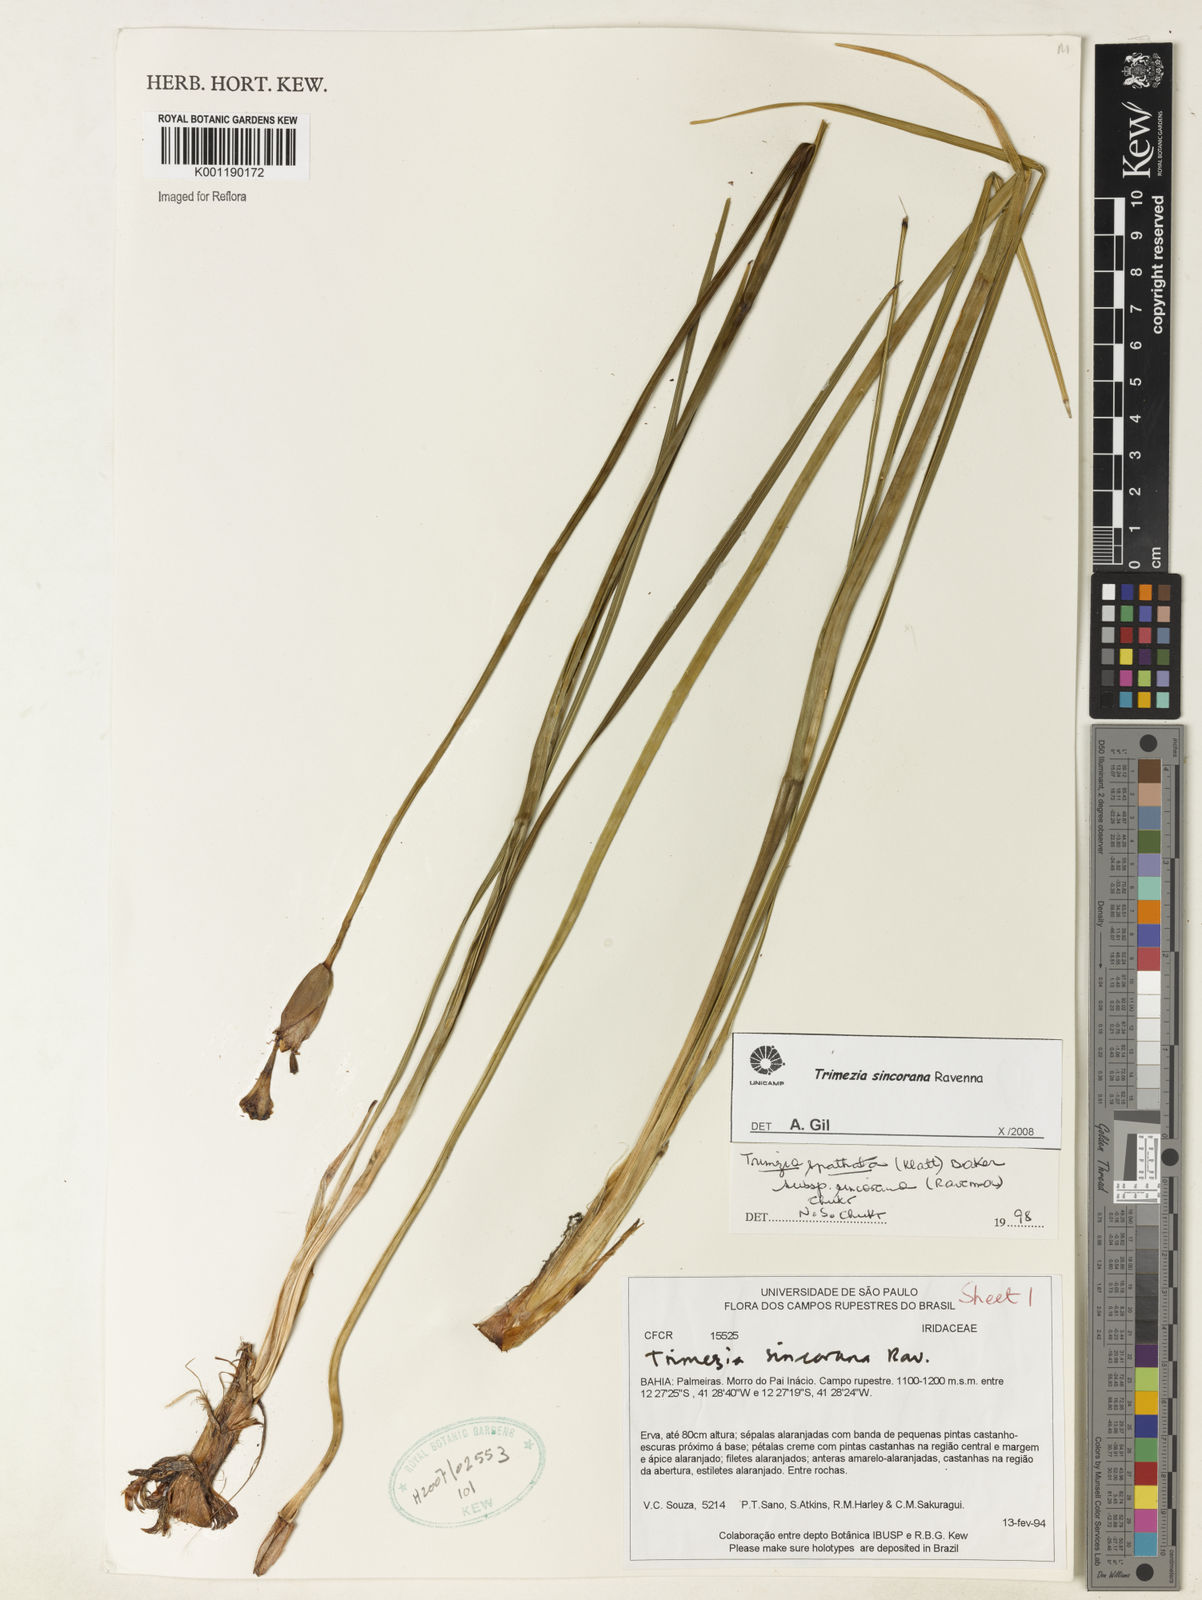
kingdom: Plantae
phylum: Tracheophyta
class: Liliopsida
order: Asparagales
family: Iridaceae
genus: Trimezia
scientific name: Trimezia spathata
